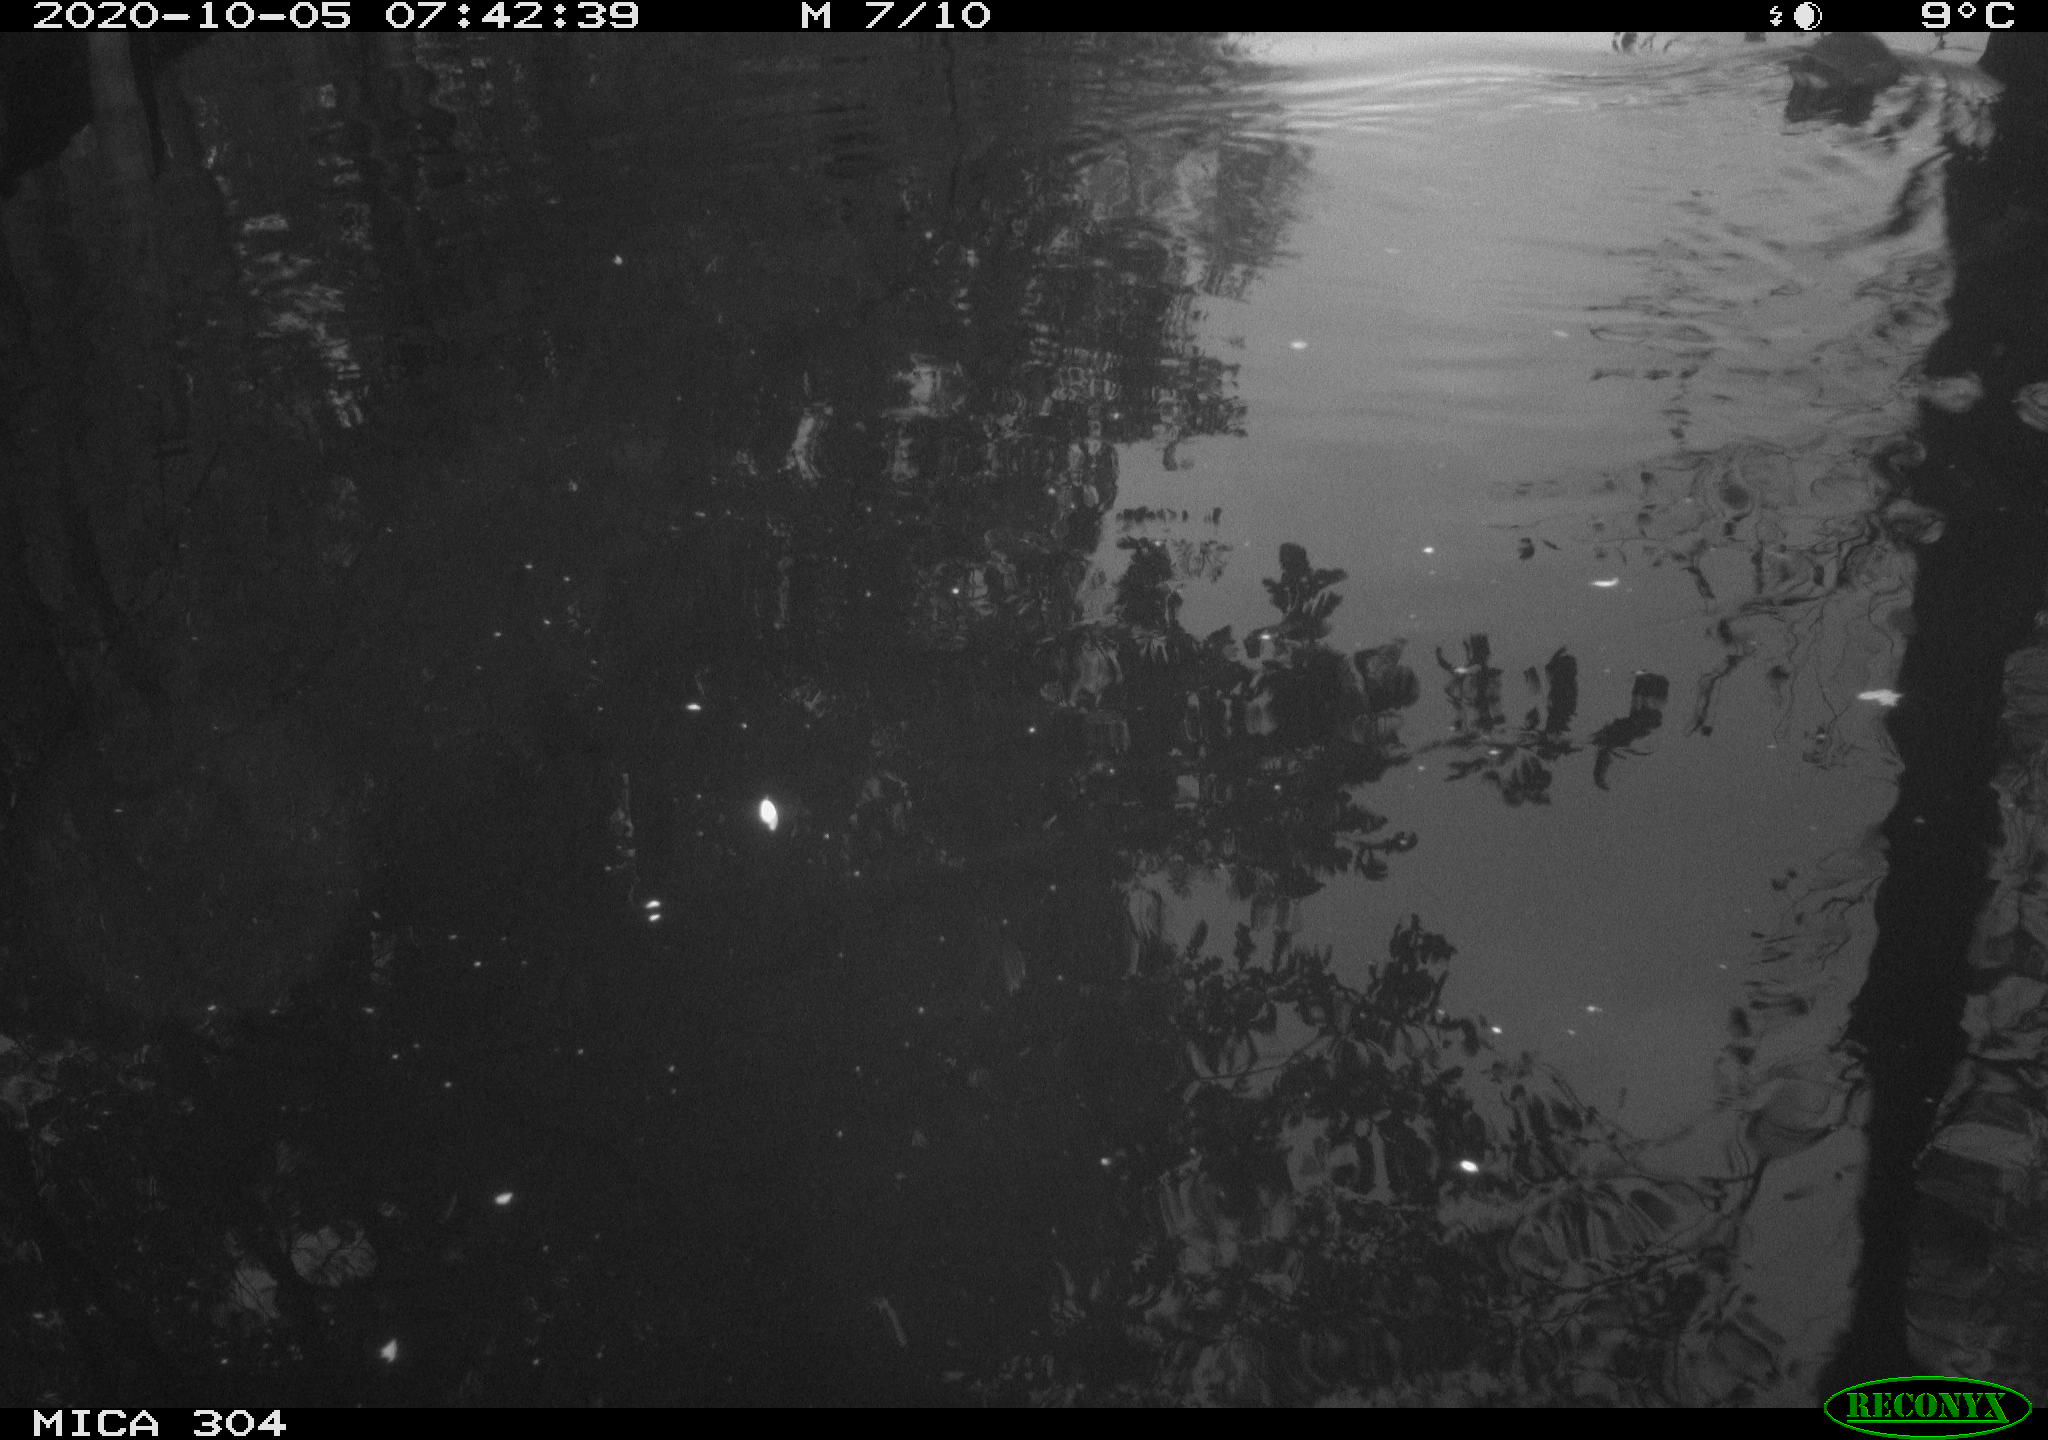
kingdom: Animalia
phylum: Chordata
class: Aves
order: Gruiformes
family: Rallidae
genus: Gallinula
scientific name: Gallinula chloropus
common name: Common moorhen
